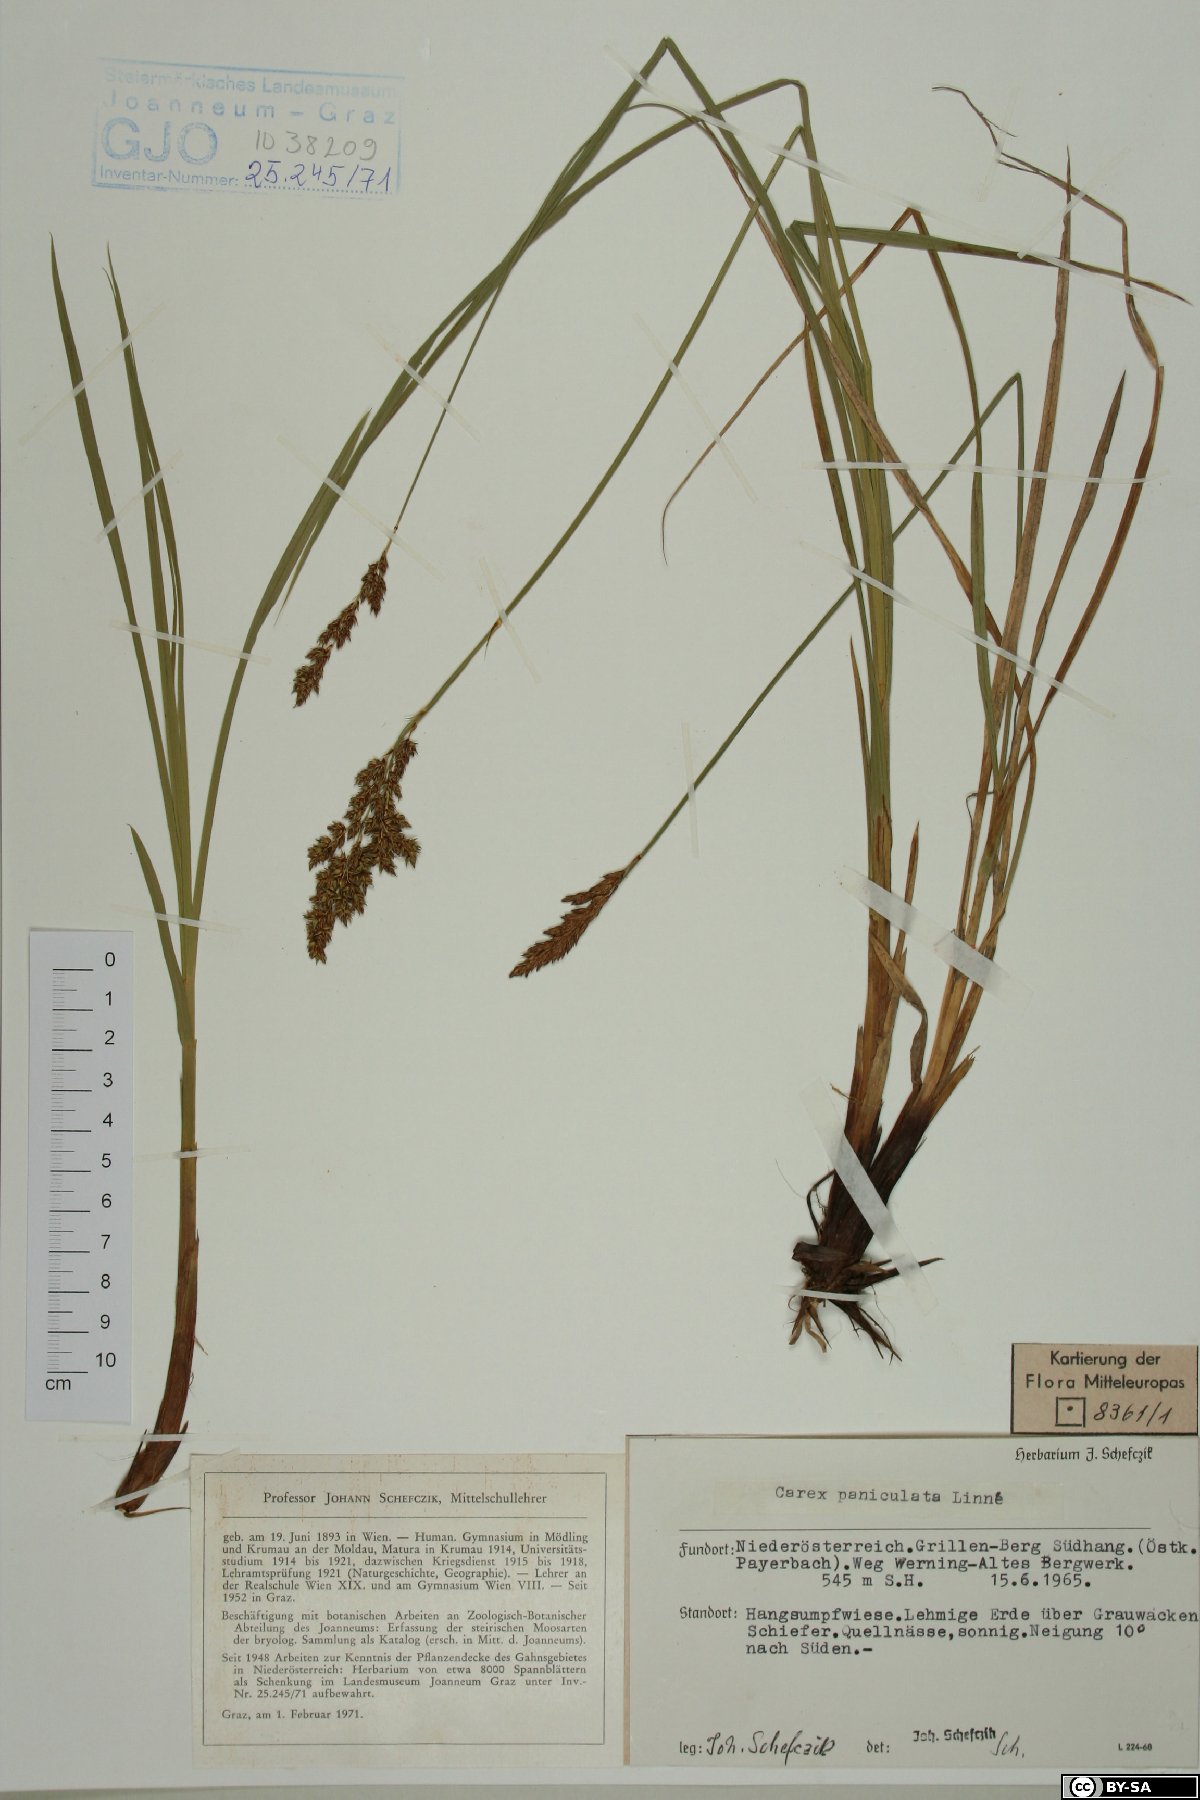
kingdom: Plantae
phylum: Tracheophyta
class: Liliopsida
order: Poales
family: Cyperaceae
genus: Carex
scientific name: Carex paniculata
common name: Greater tussock-sedge
